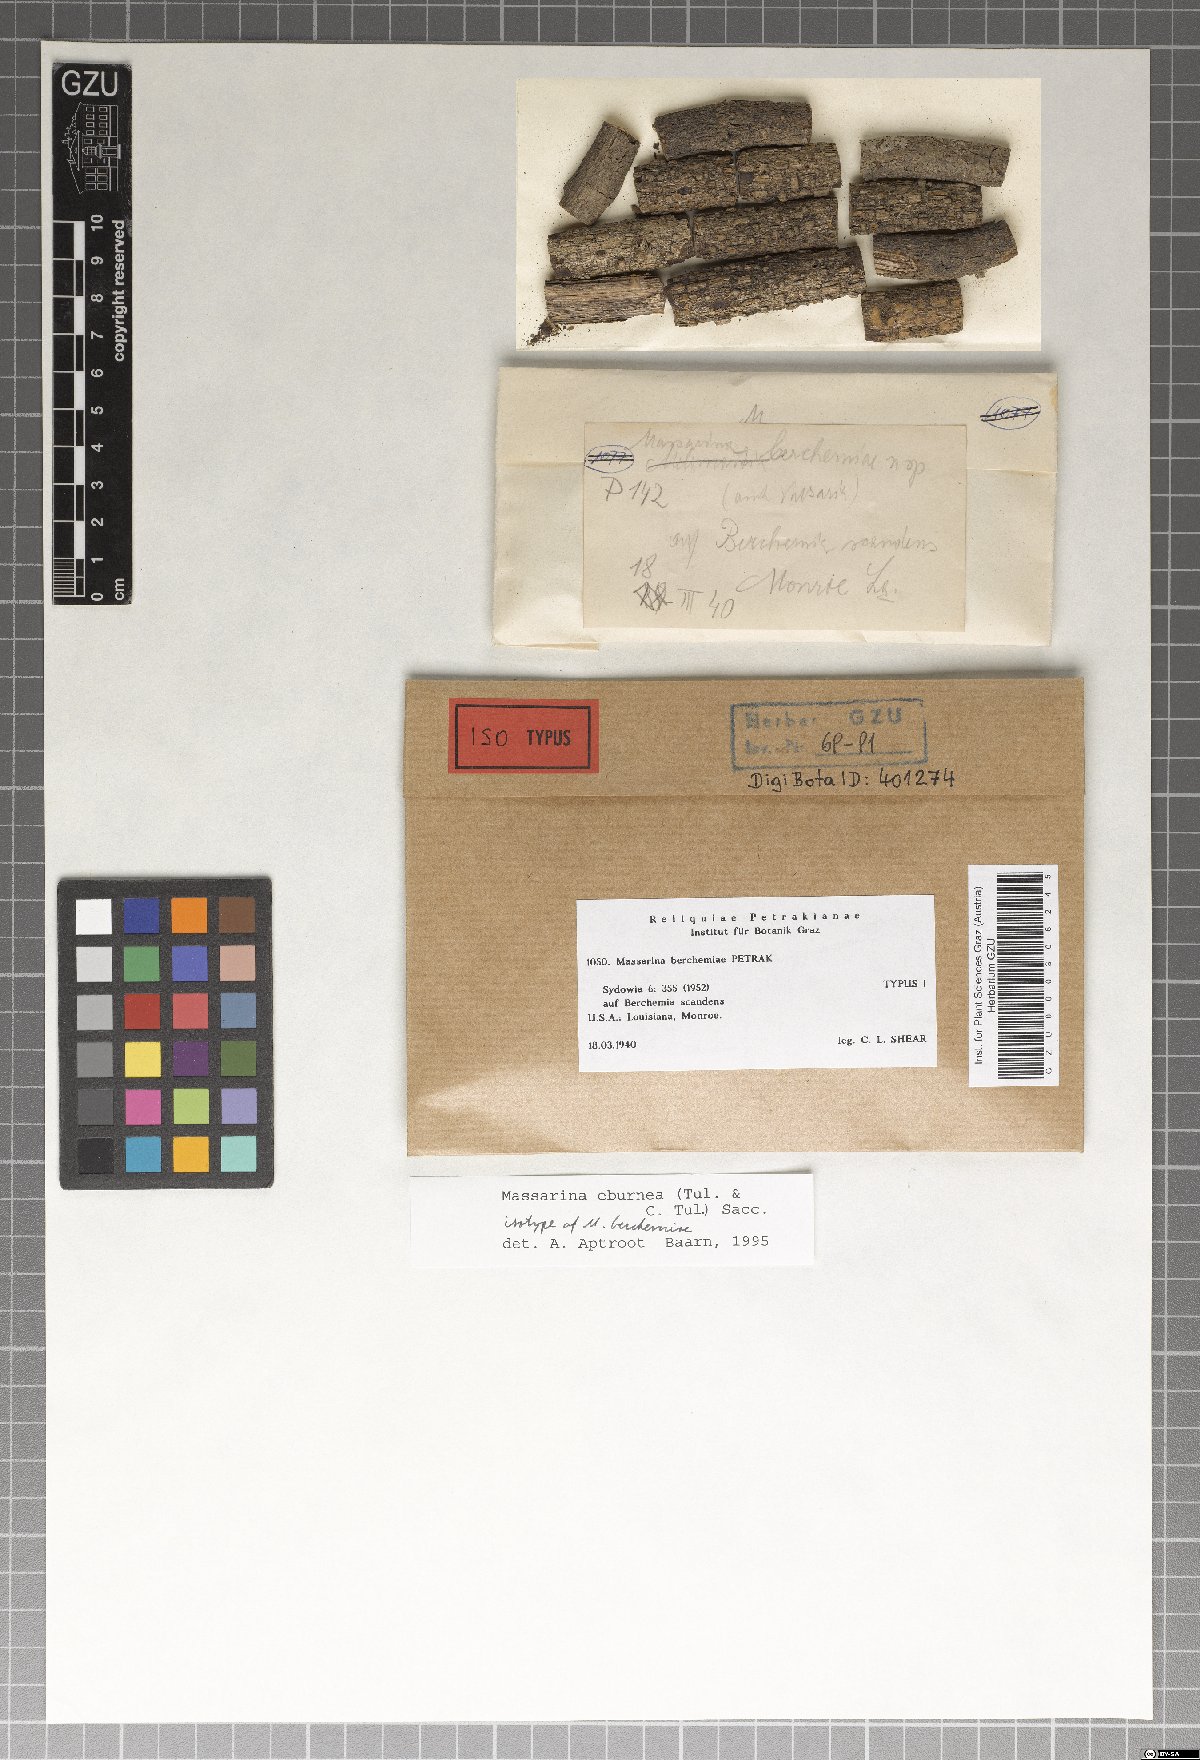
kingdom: Fungi
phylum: Ascomycota
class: Dothideomycetes
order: Pleosporales
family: Massarinaceae
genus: Massarina
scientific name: Massarina berchemiae
